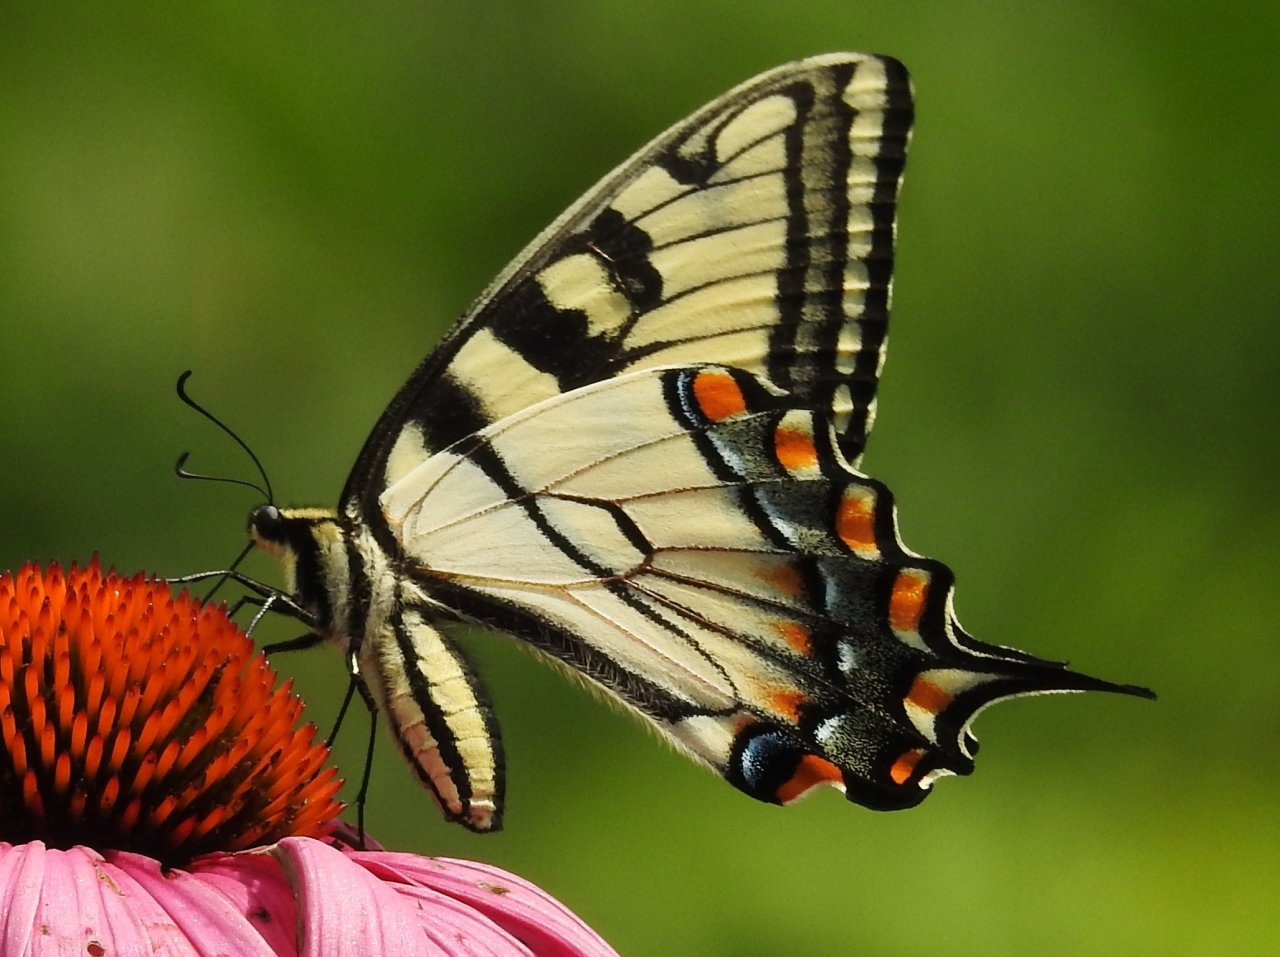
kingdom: Animalia
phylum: Arthropoda
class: Insecta
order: Lepidoptera
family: Papilionidae
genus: Pterourus
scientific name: Pterourus glaucus
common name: Eastern Tiger Swallowtail
